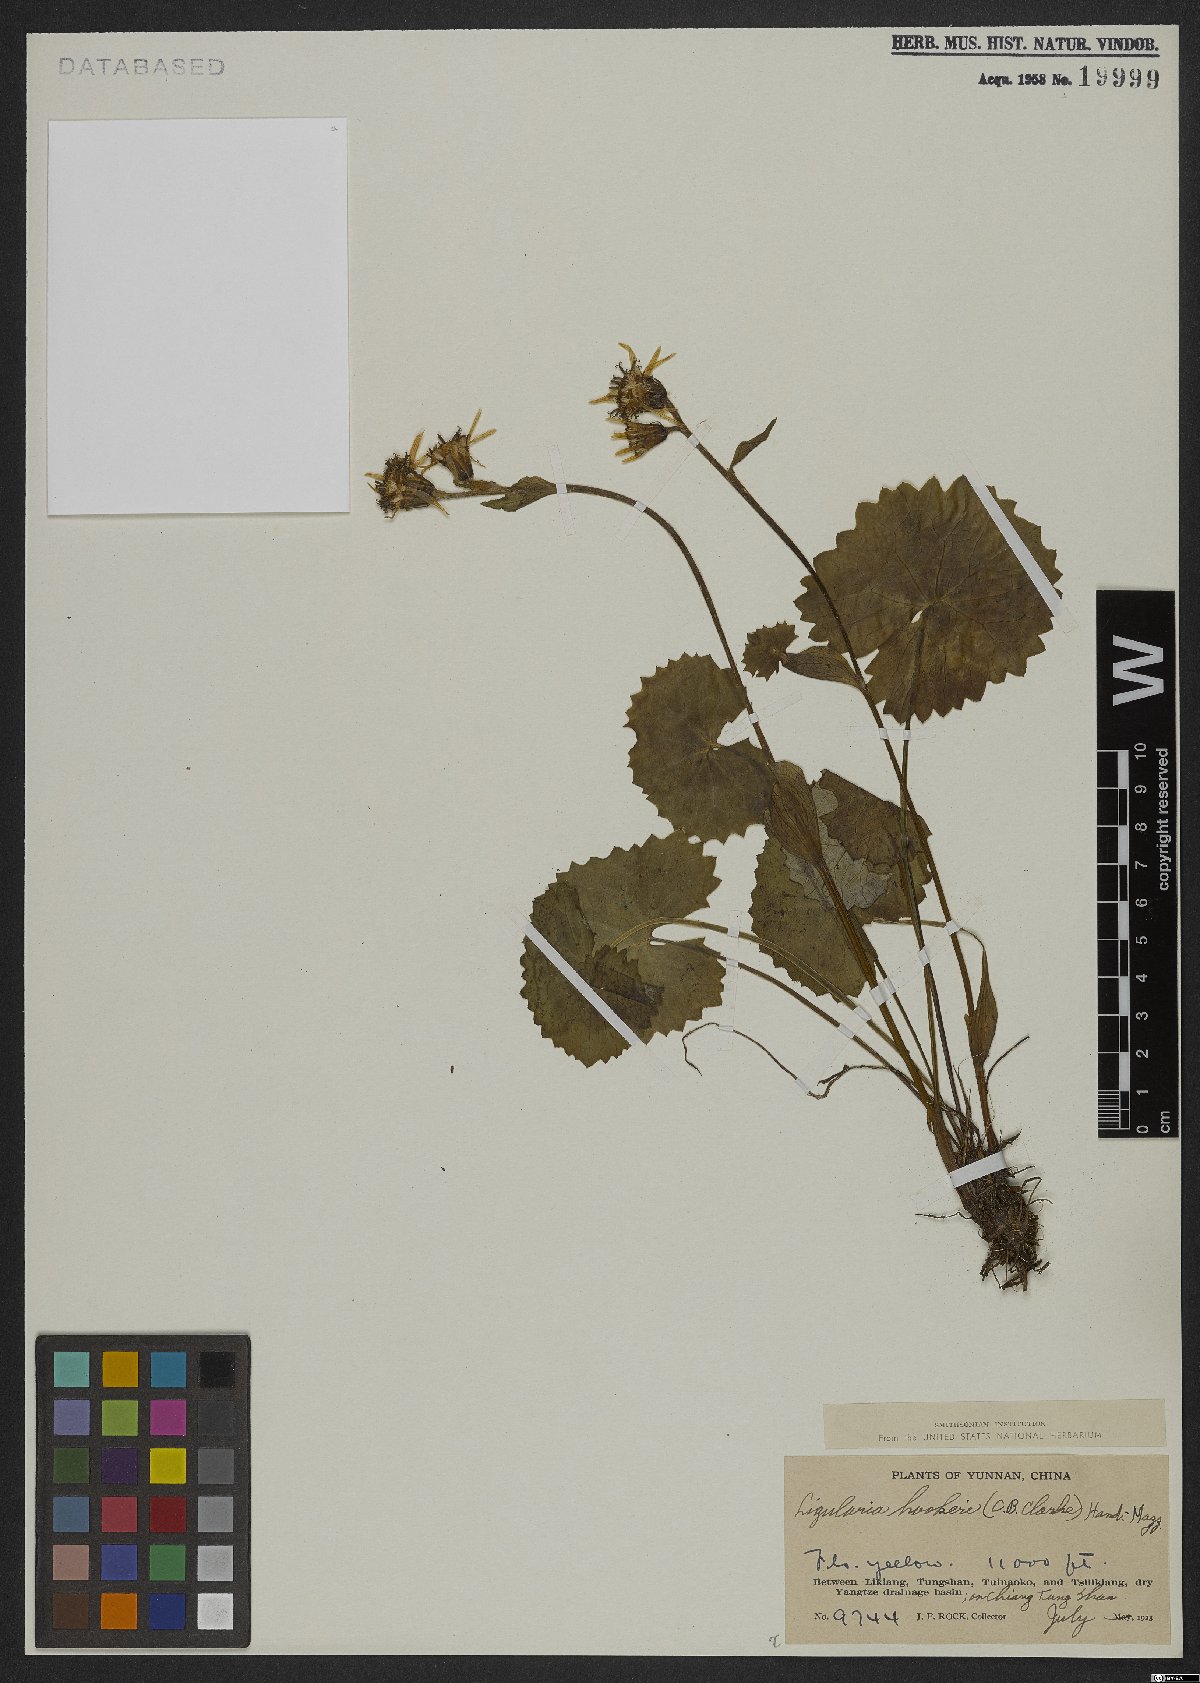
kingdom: Plantae
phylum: Tracheophyta
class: Magnoliopsida
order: Asterales
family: Asteraceae
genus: Ligularia
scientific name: Ligularia hookeri
